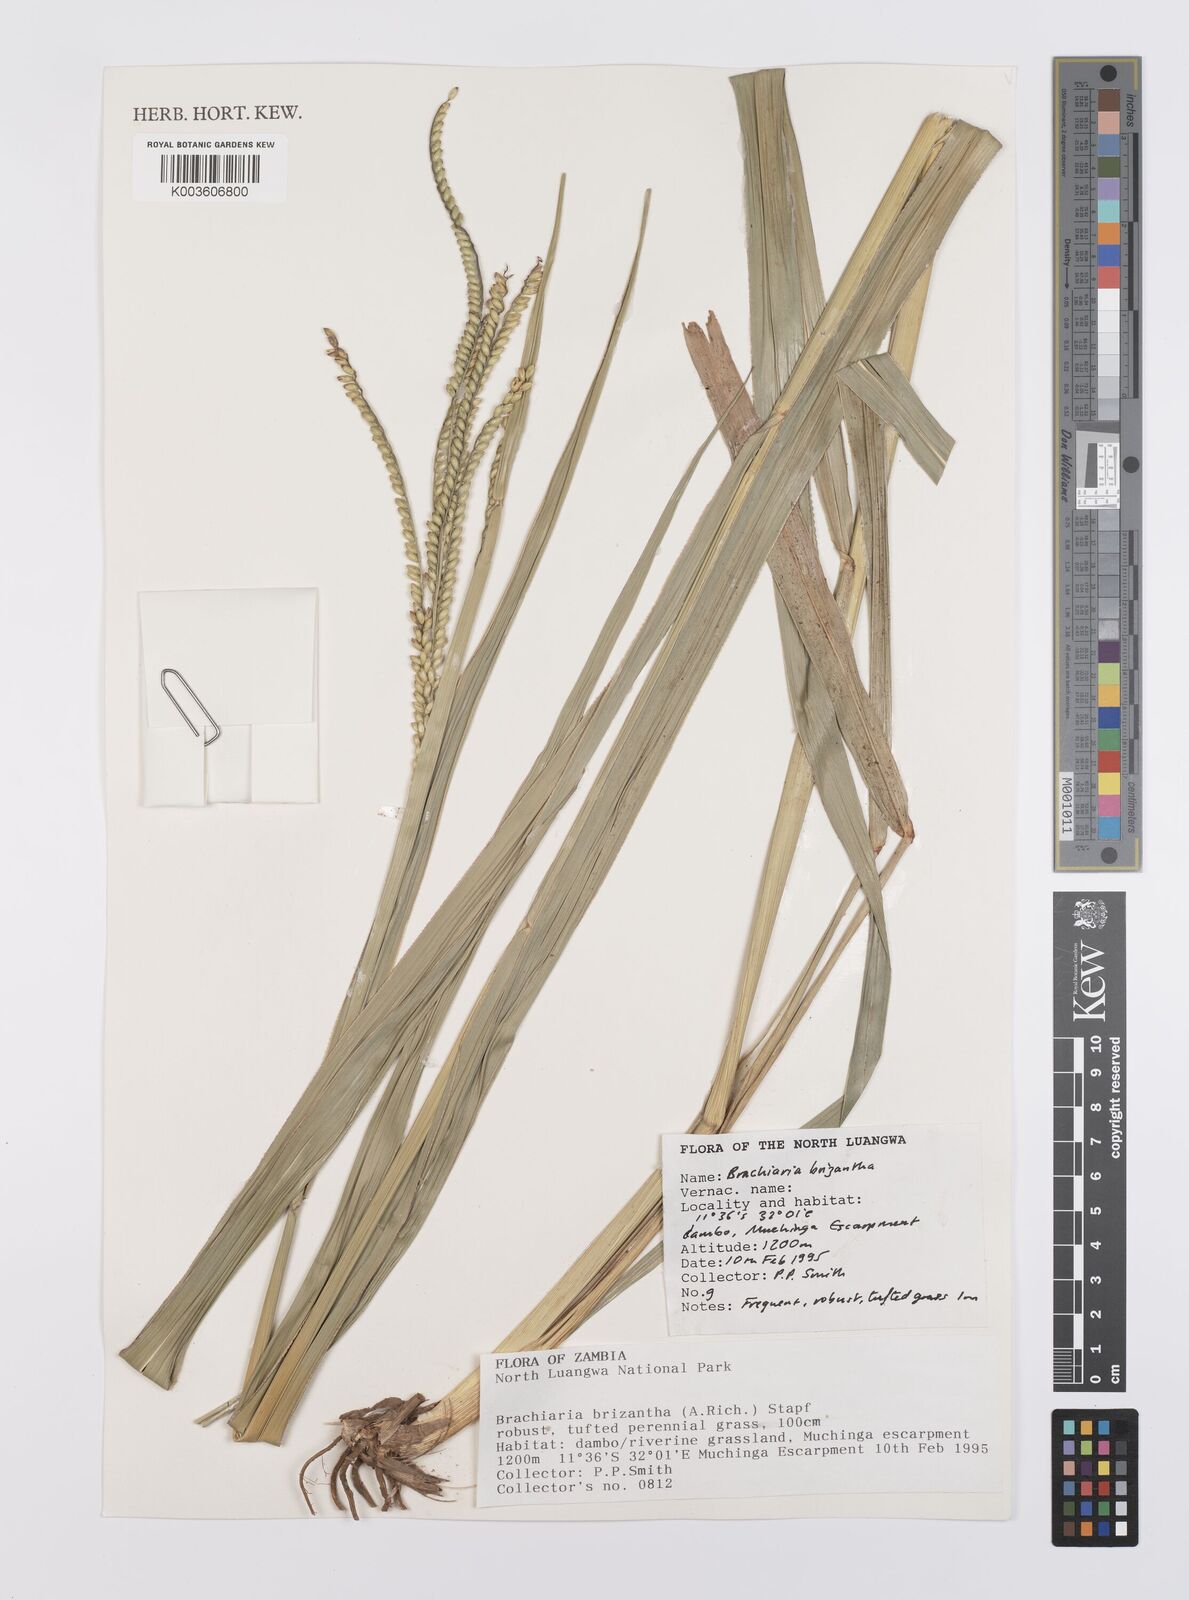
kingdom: Plantae
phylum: Tracheophyta
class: Liliopsida
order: Poales
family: Poaceae
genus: Urochloa
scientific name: Urochloa brizantha
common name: Palisade signalgrass
